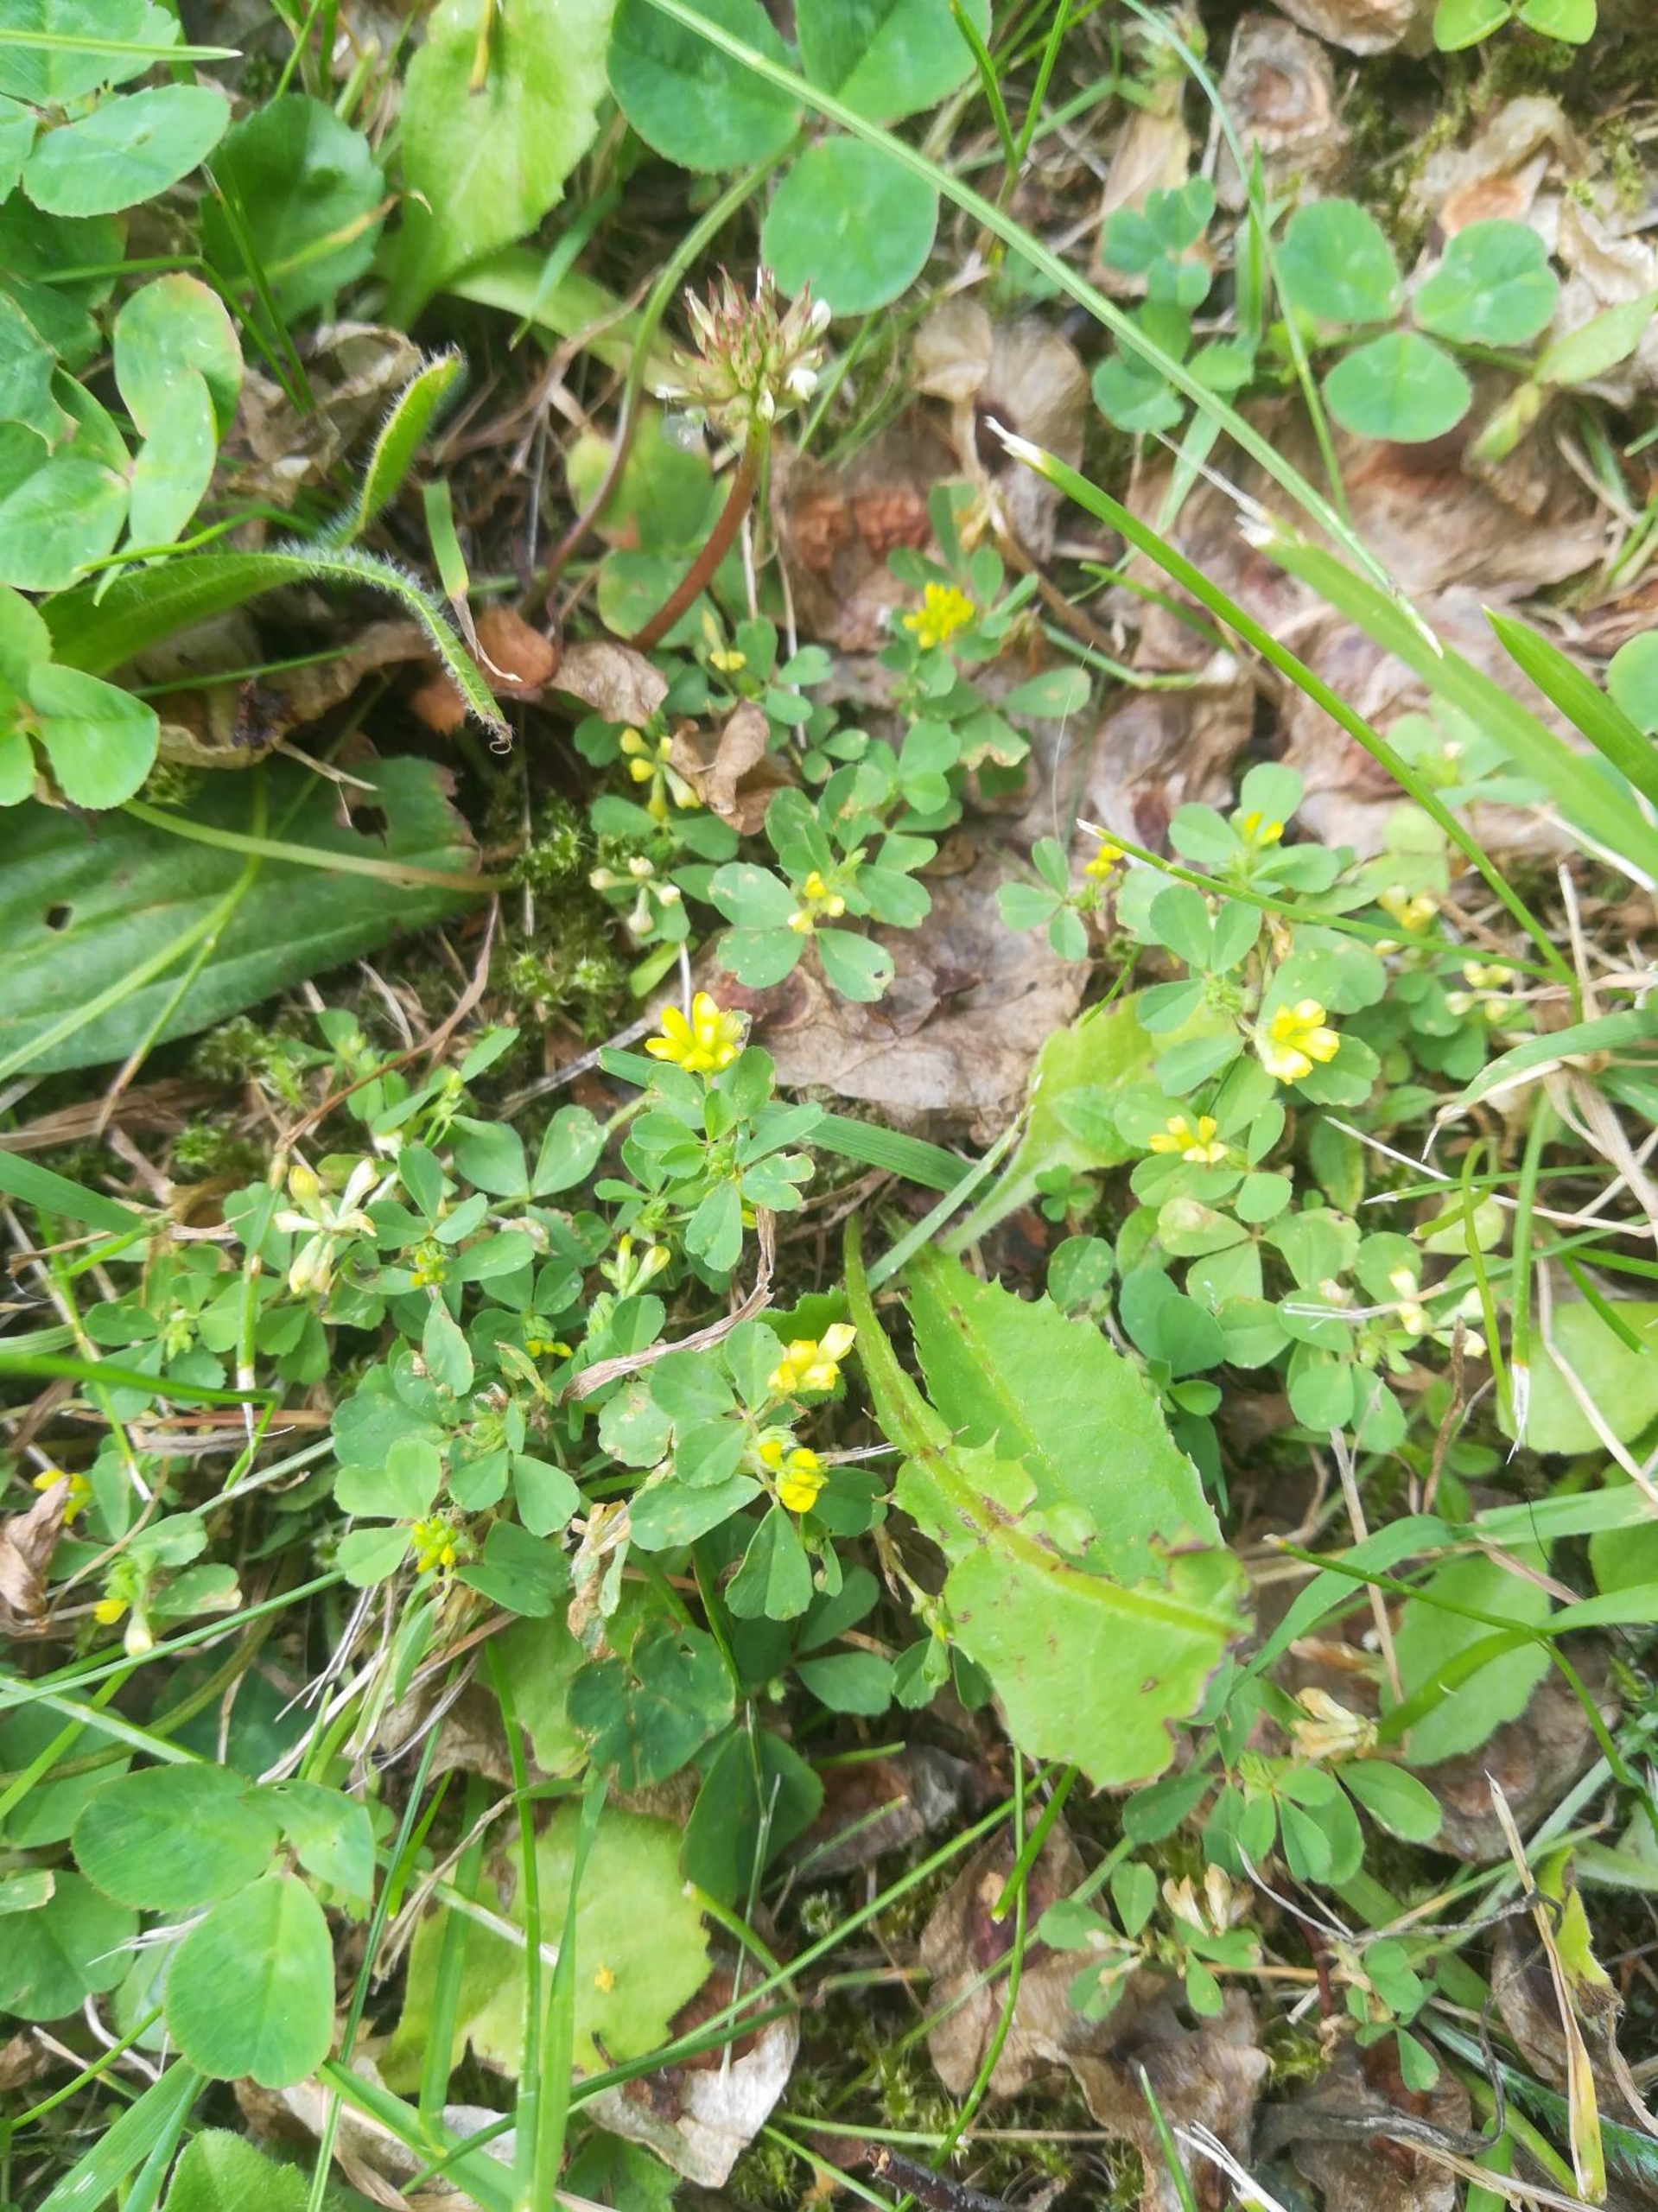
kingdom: Plantae
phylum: Tracheophyta
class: Magnoliopsida
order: Fabales
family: Fabaceae
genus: Trifolium
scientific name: Trifolium dubium
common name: Fin kløver
